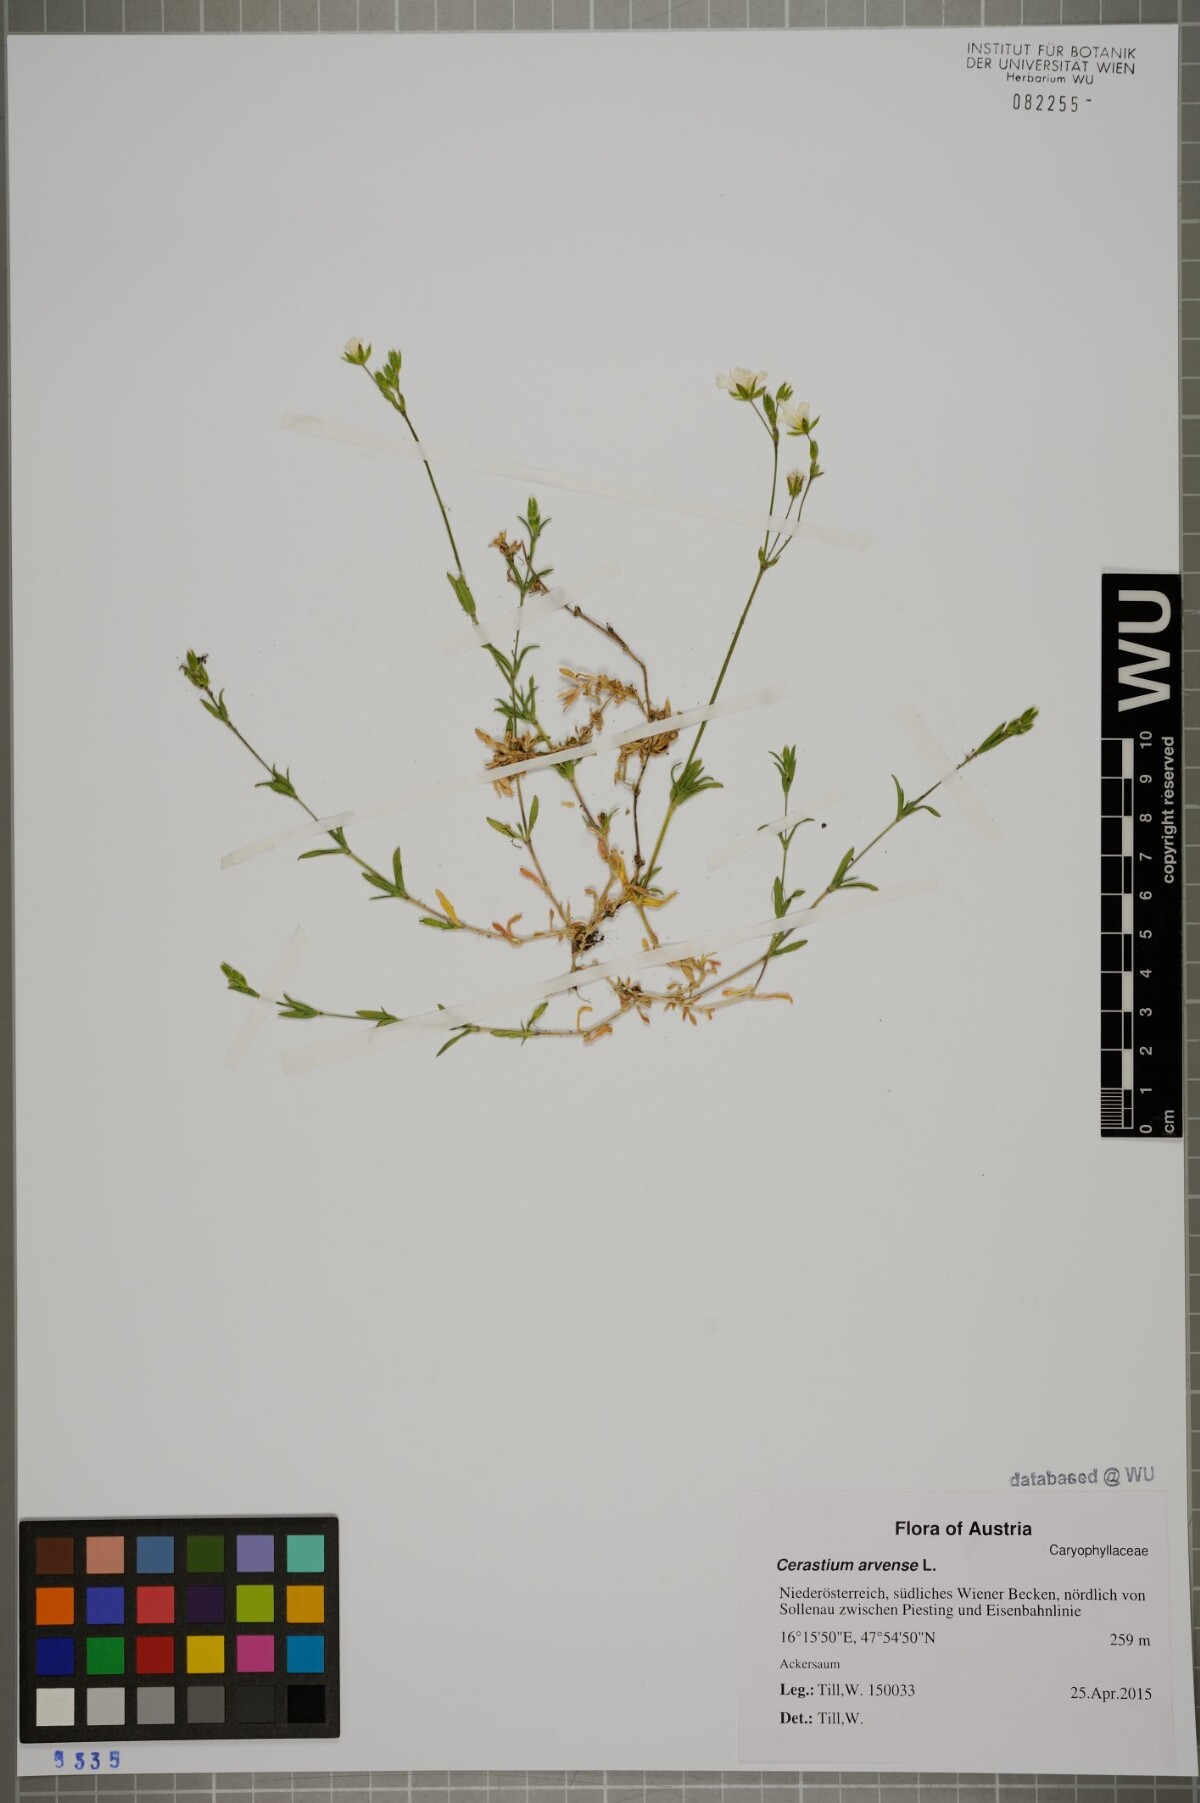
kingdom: Plantae
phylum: Tracheophyta
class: Magnoliopsida
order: Caryophyllales
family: Caryophyllaceae
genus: Cerastium
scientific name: Cerastium arvense
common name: Field mouse-ear
